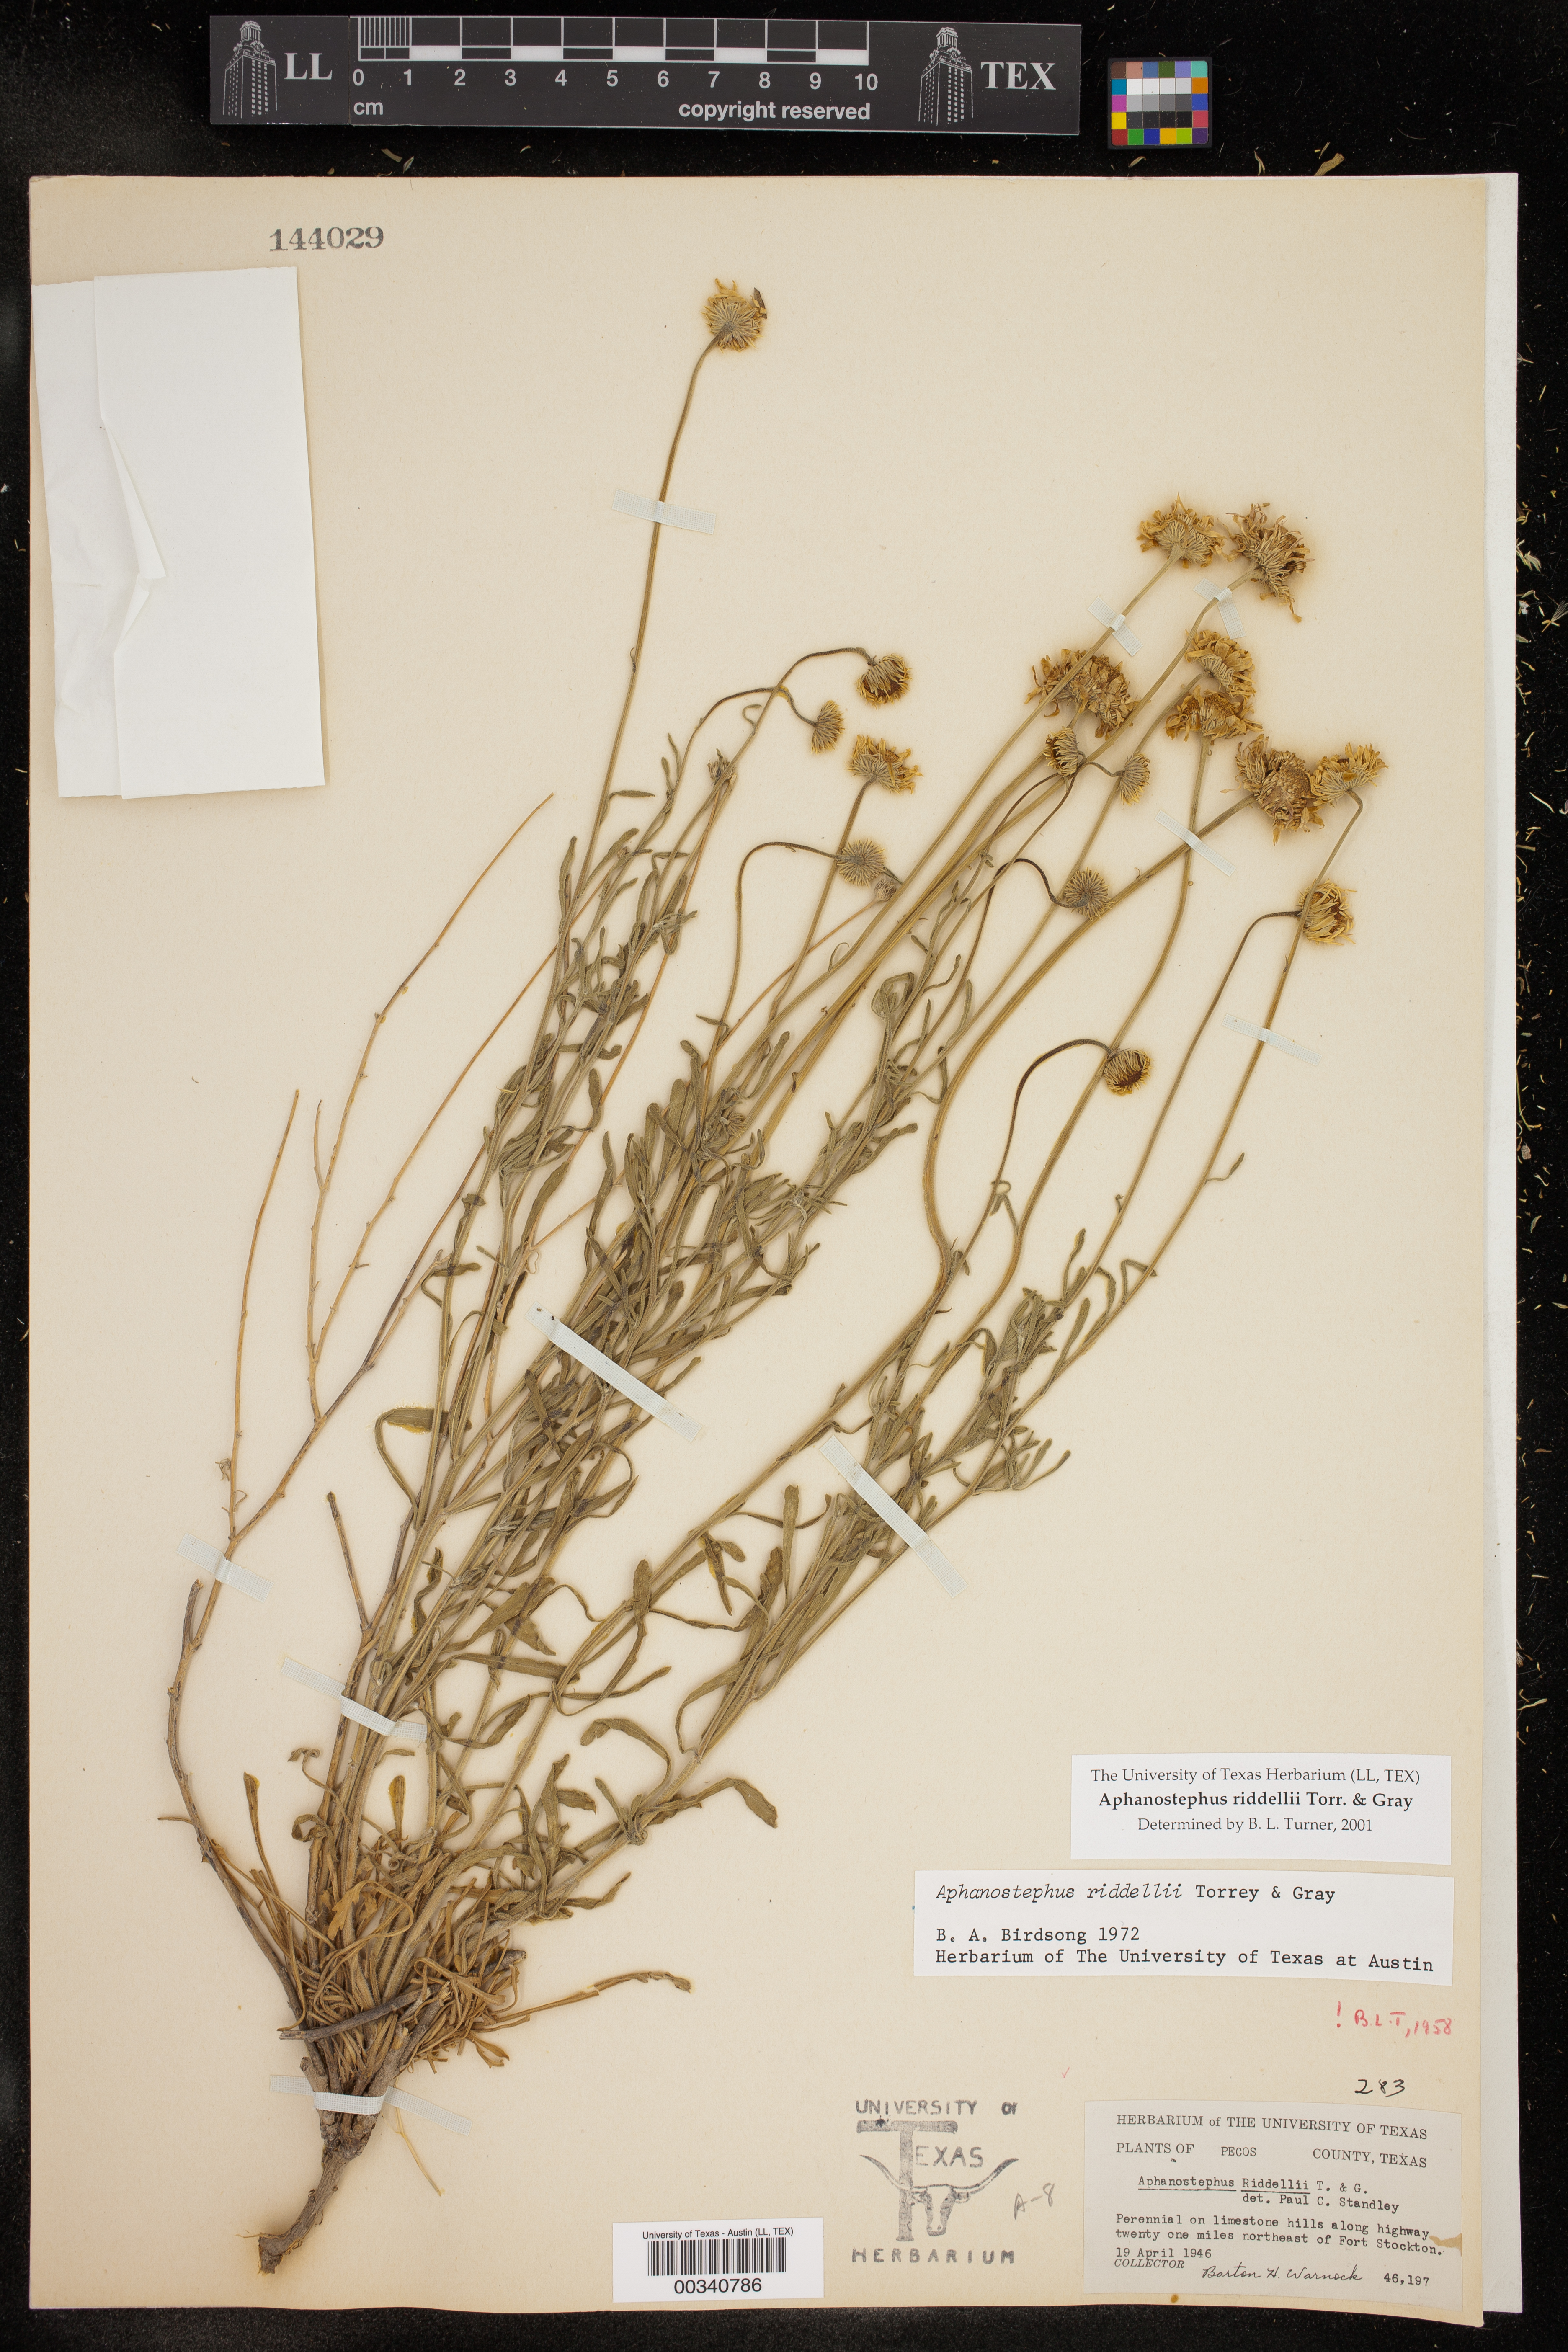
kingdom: Plantae
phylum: Tracheophyta
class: Magnoliopsida
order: Asterales
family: Asteraceae
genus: Aphanostephus
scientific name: Aphanostephus riddellii
